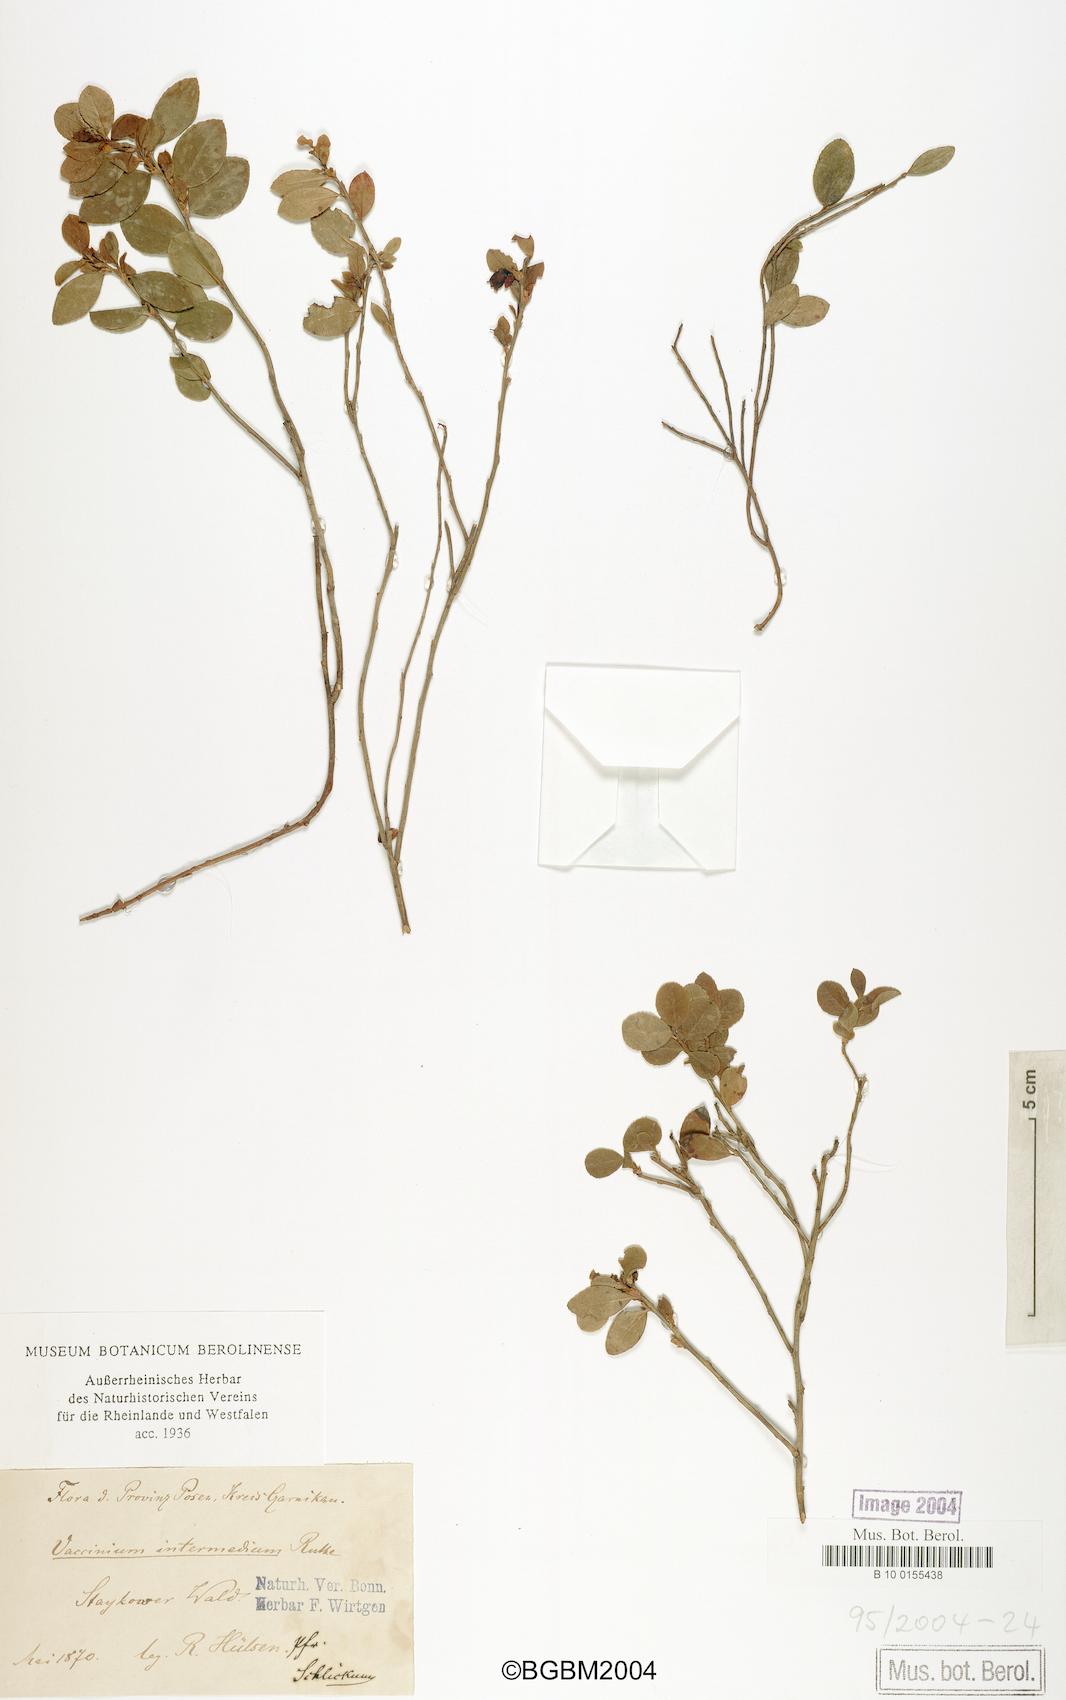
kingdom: Plantae
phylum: Tracheophyta
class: Magnoliopsida
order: Ericales
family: Ericaceae
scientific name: Ericaceae
